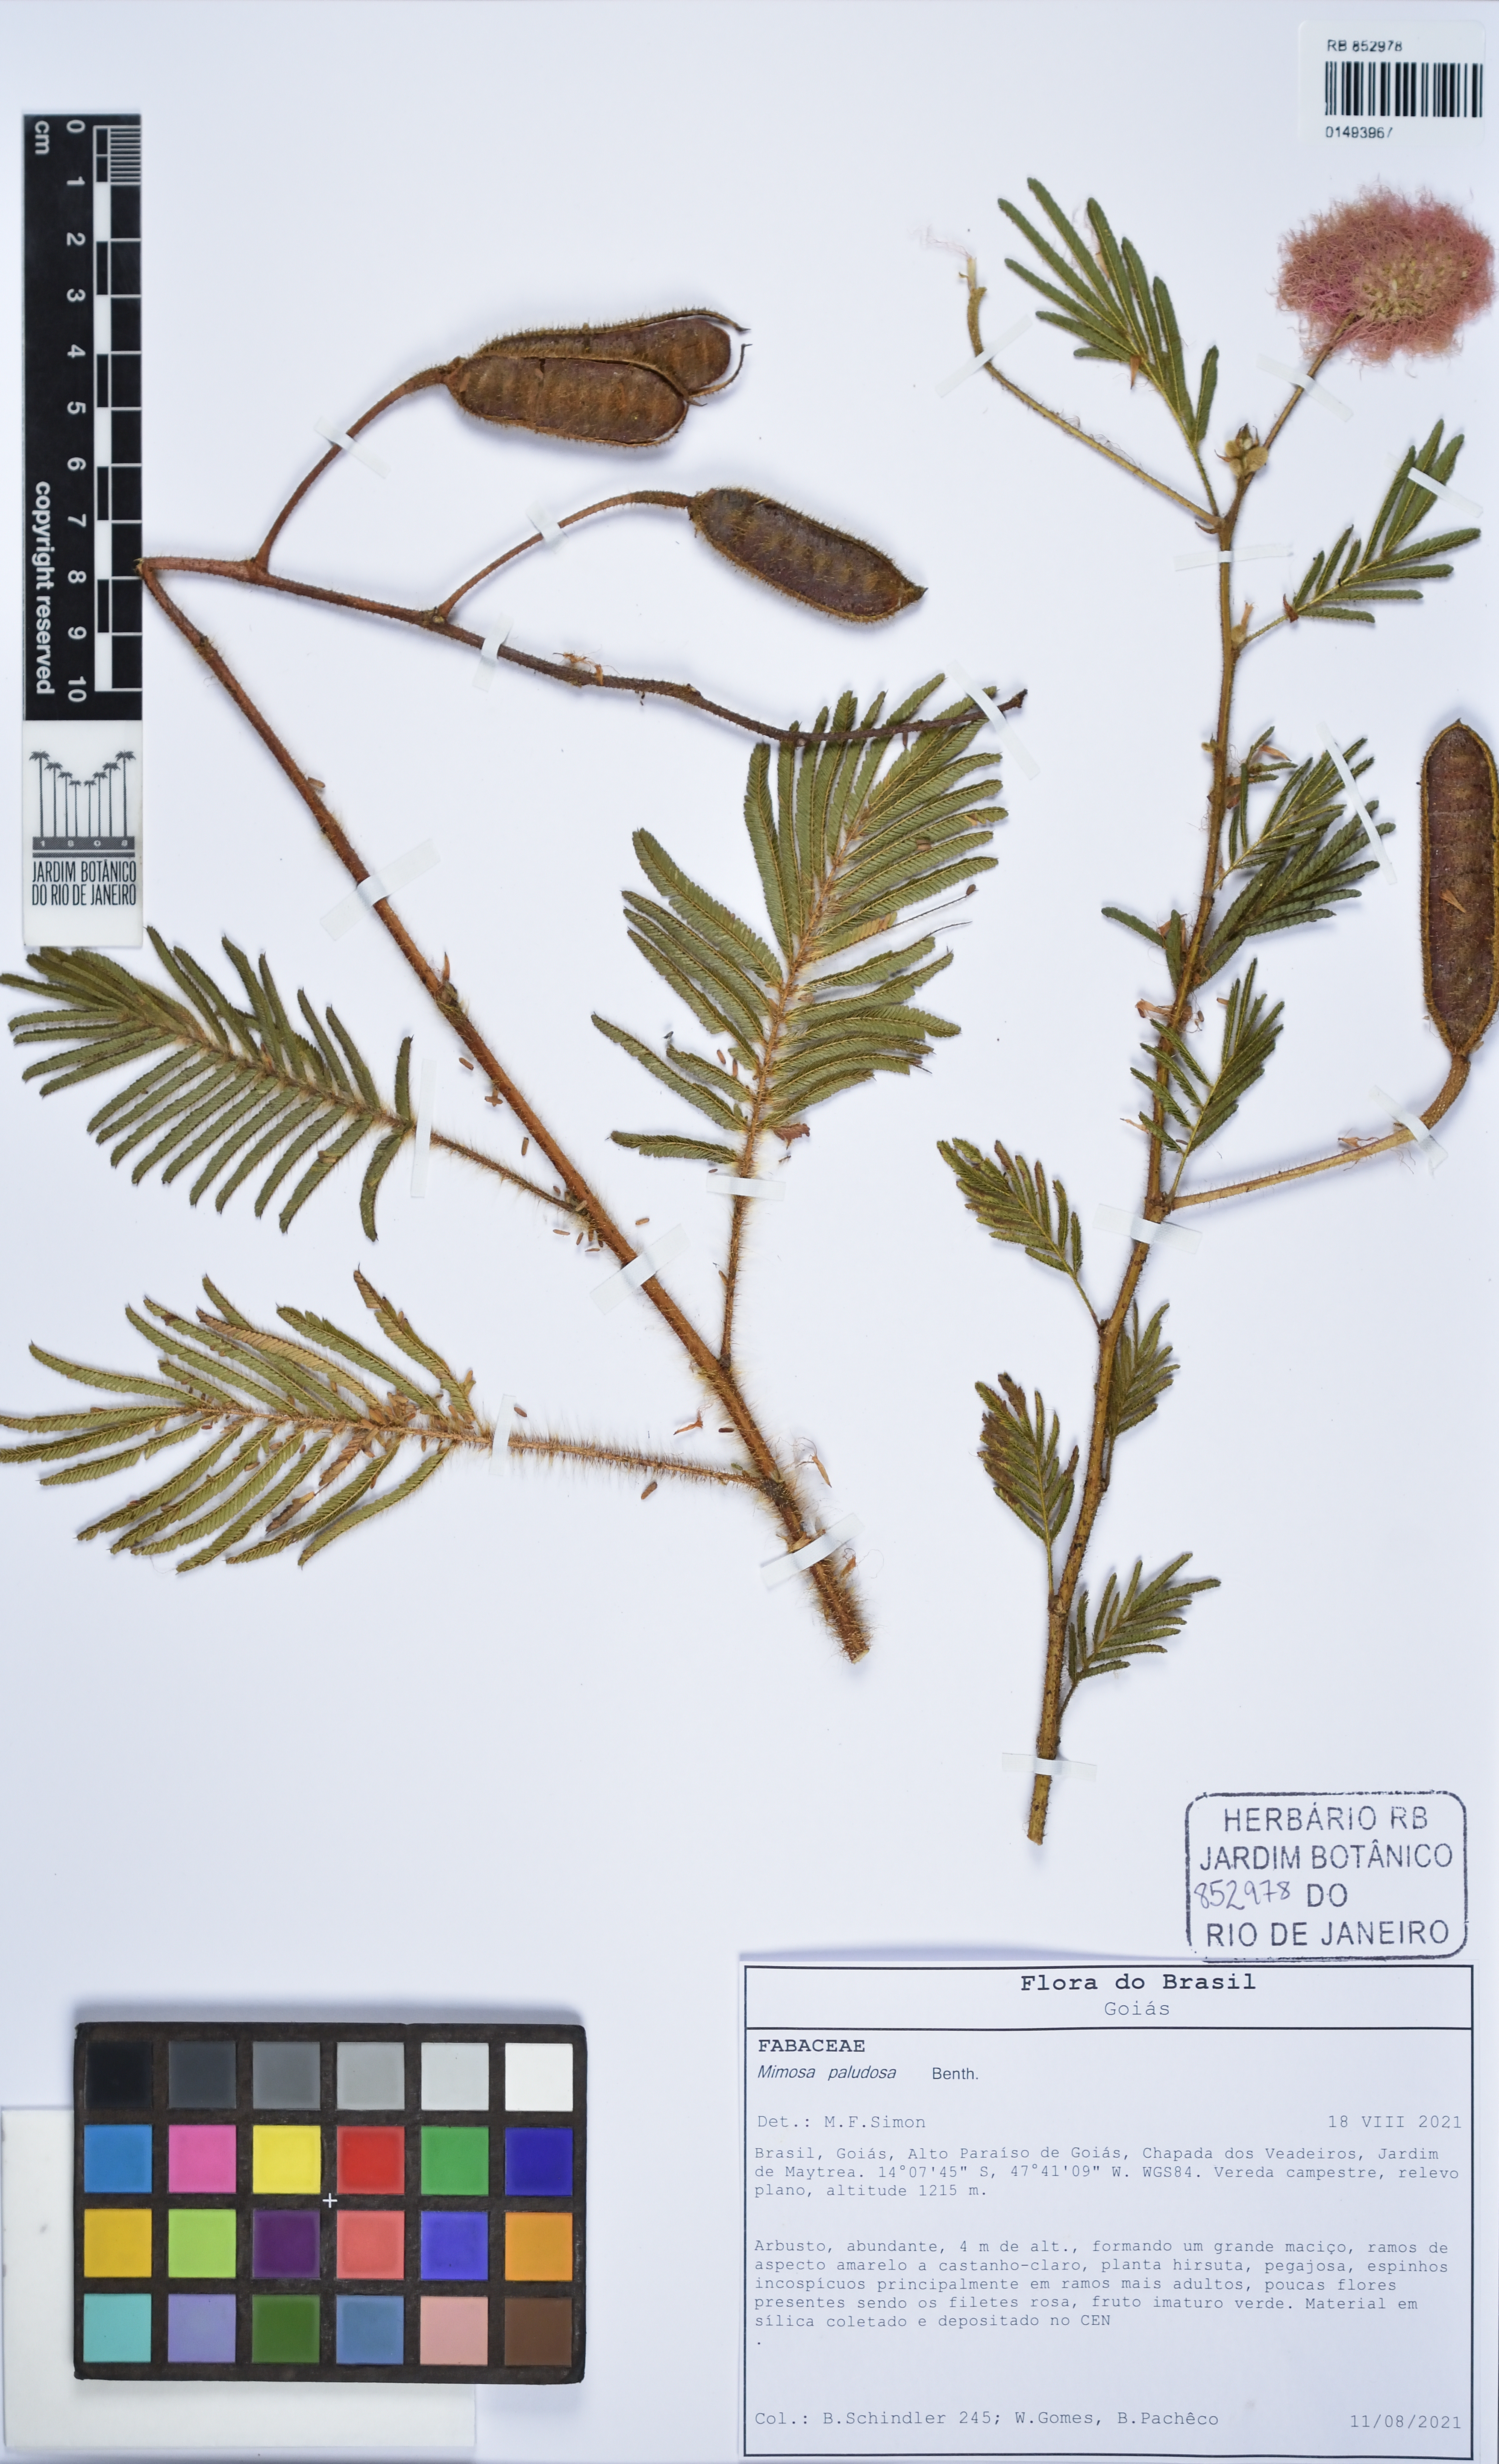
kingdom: Plantae
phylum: Tracheophyta
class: Magnoliopsida
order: Fabales
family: Fabaceae
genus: Mimosa
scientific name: Mimosa paludosa
